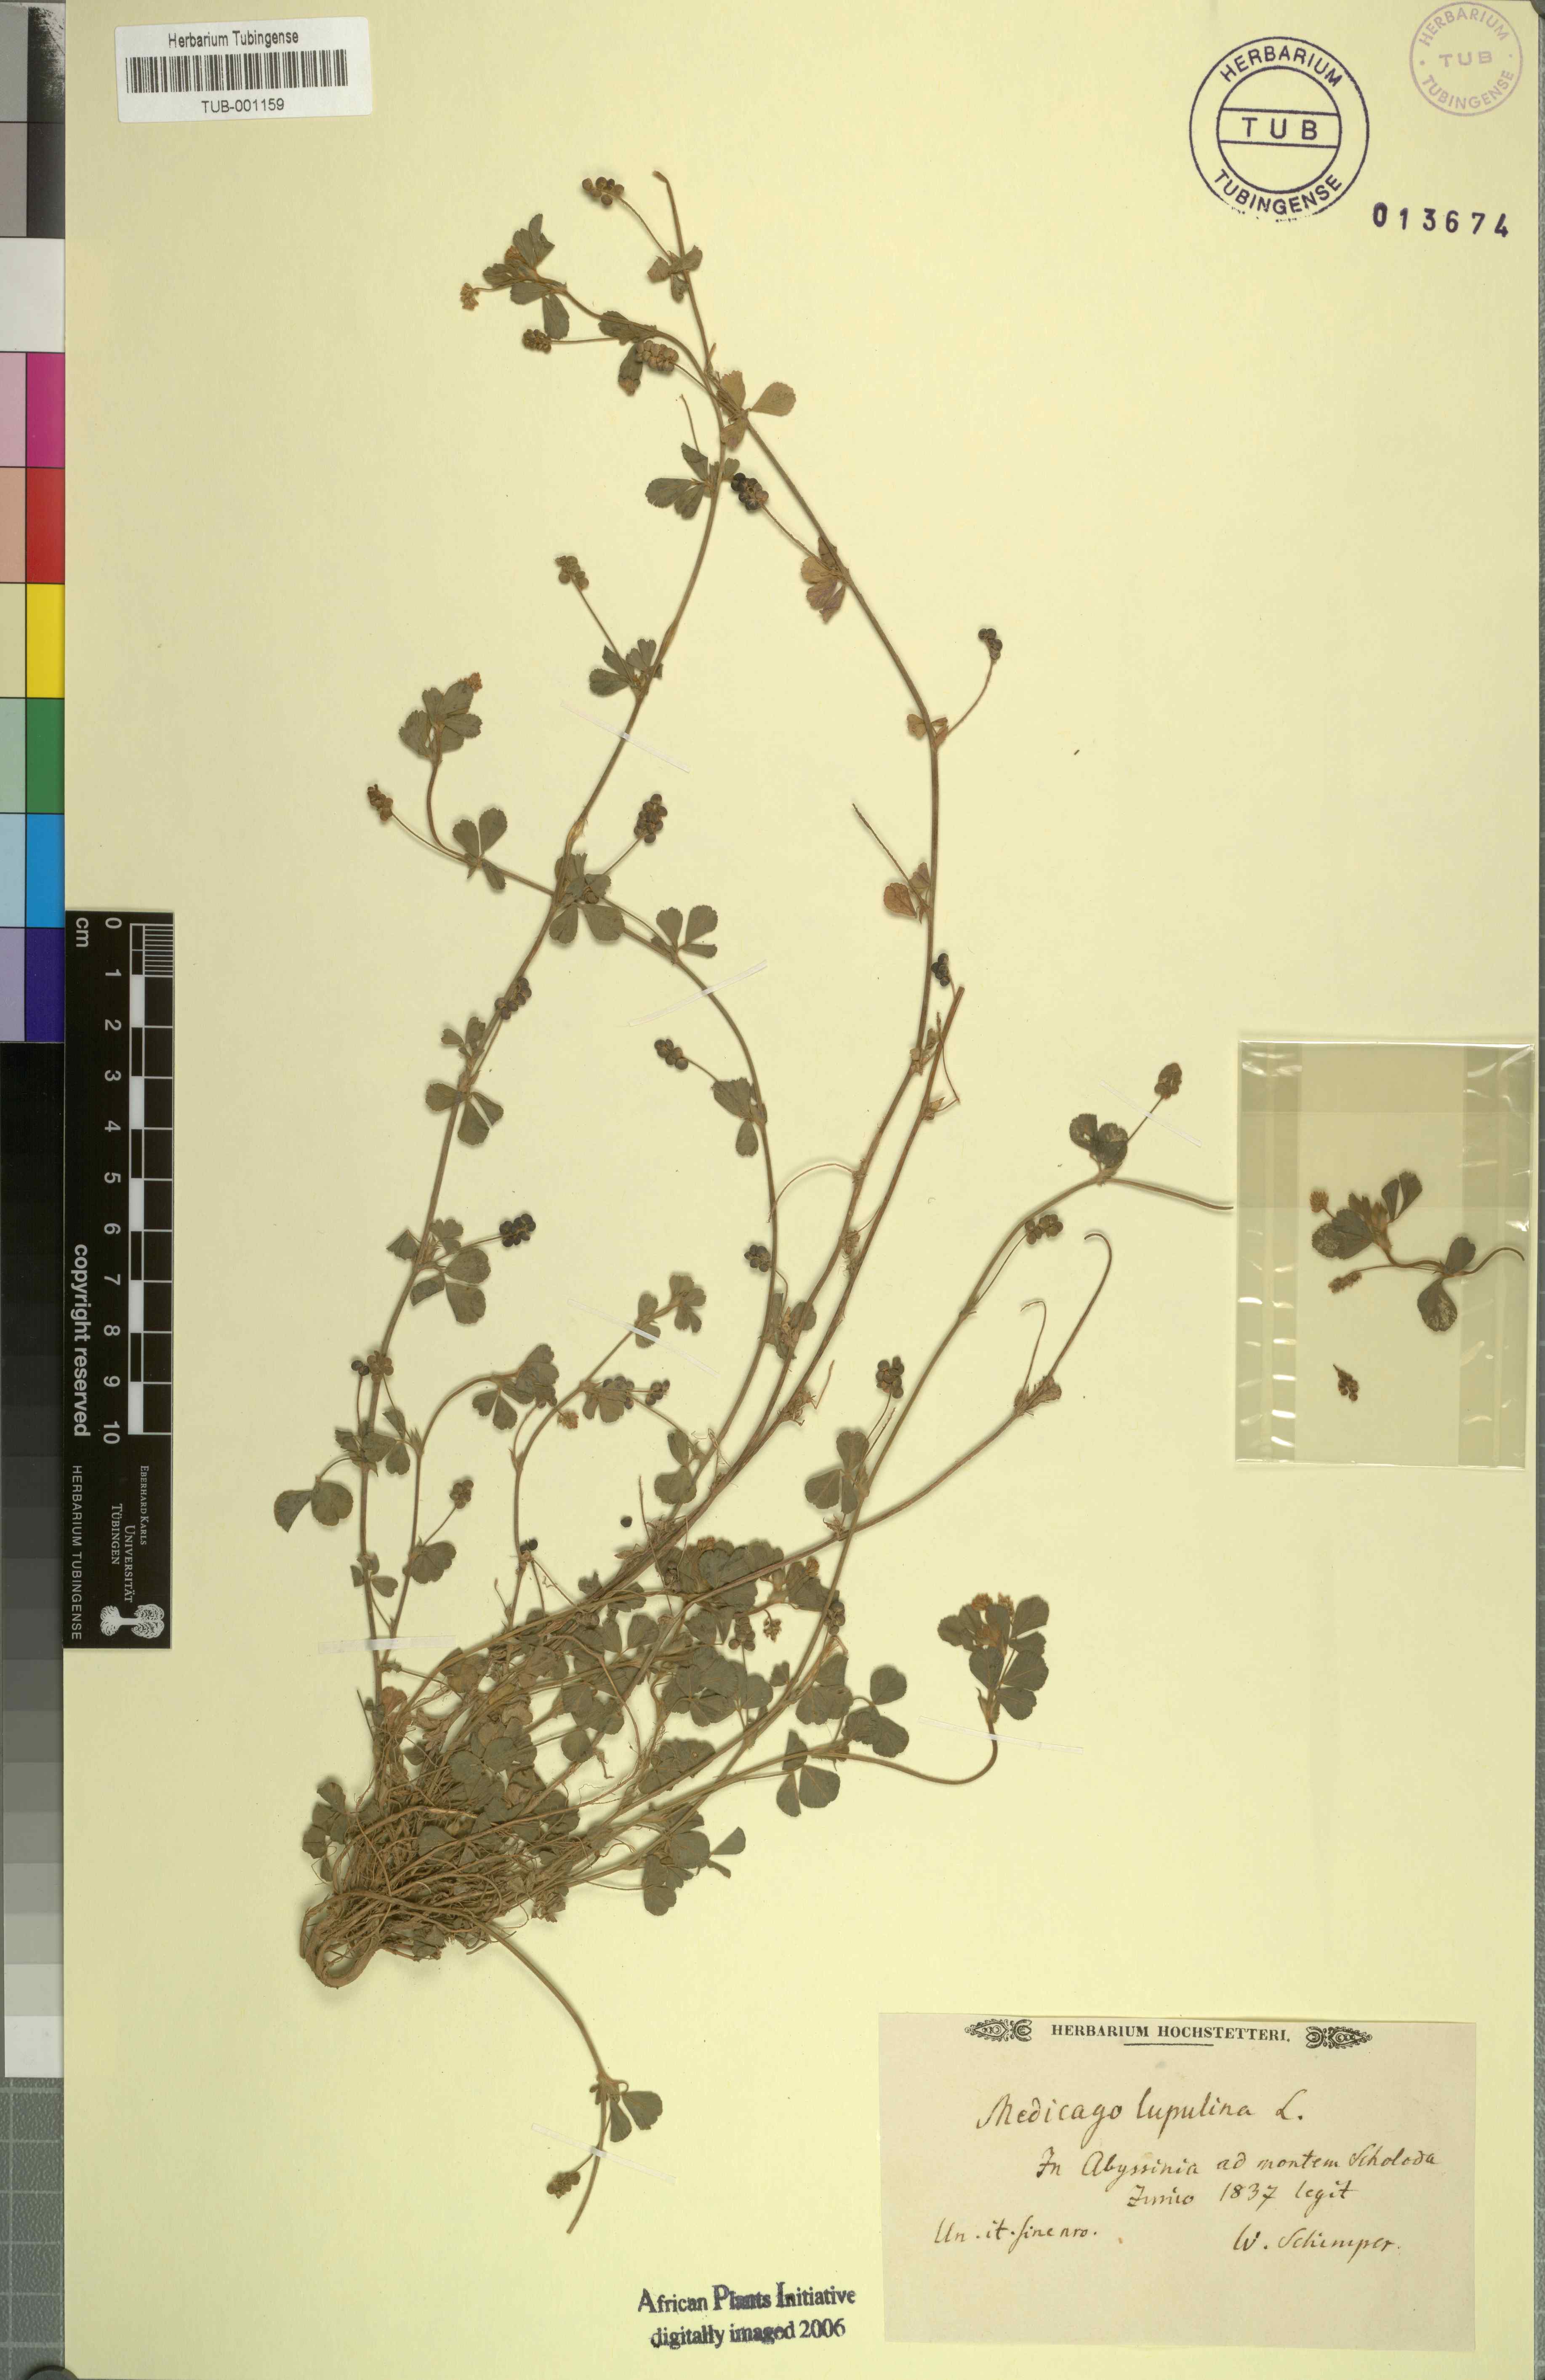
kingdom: Plantae
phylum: Tracheophyta
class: Magnoliopsida
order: Fabales
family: Fabaceae
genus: Medicago
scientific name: Medicago lupulina
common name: Black medick
